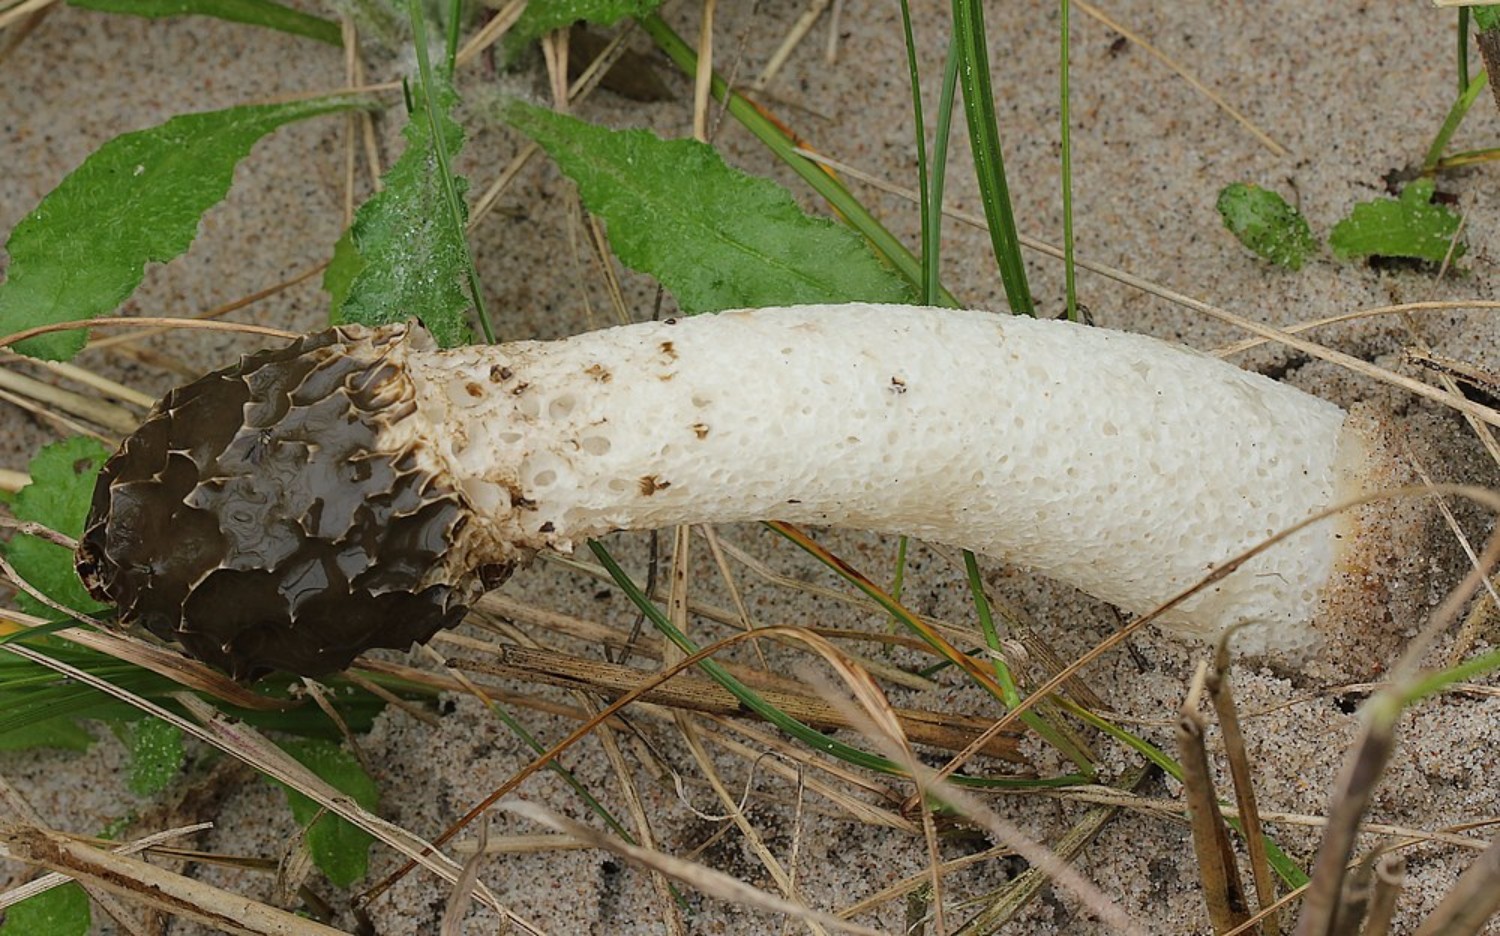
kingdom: Fungi
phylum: Basidiomycota
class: Agaricomycetes
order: Phallales
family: Phallaceae
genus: Phallus
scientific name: Phallus impudicus
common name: almindelig stinksvamp
